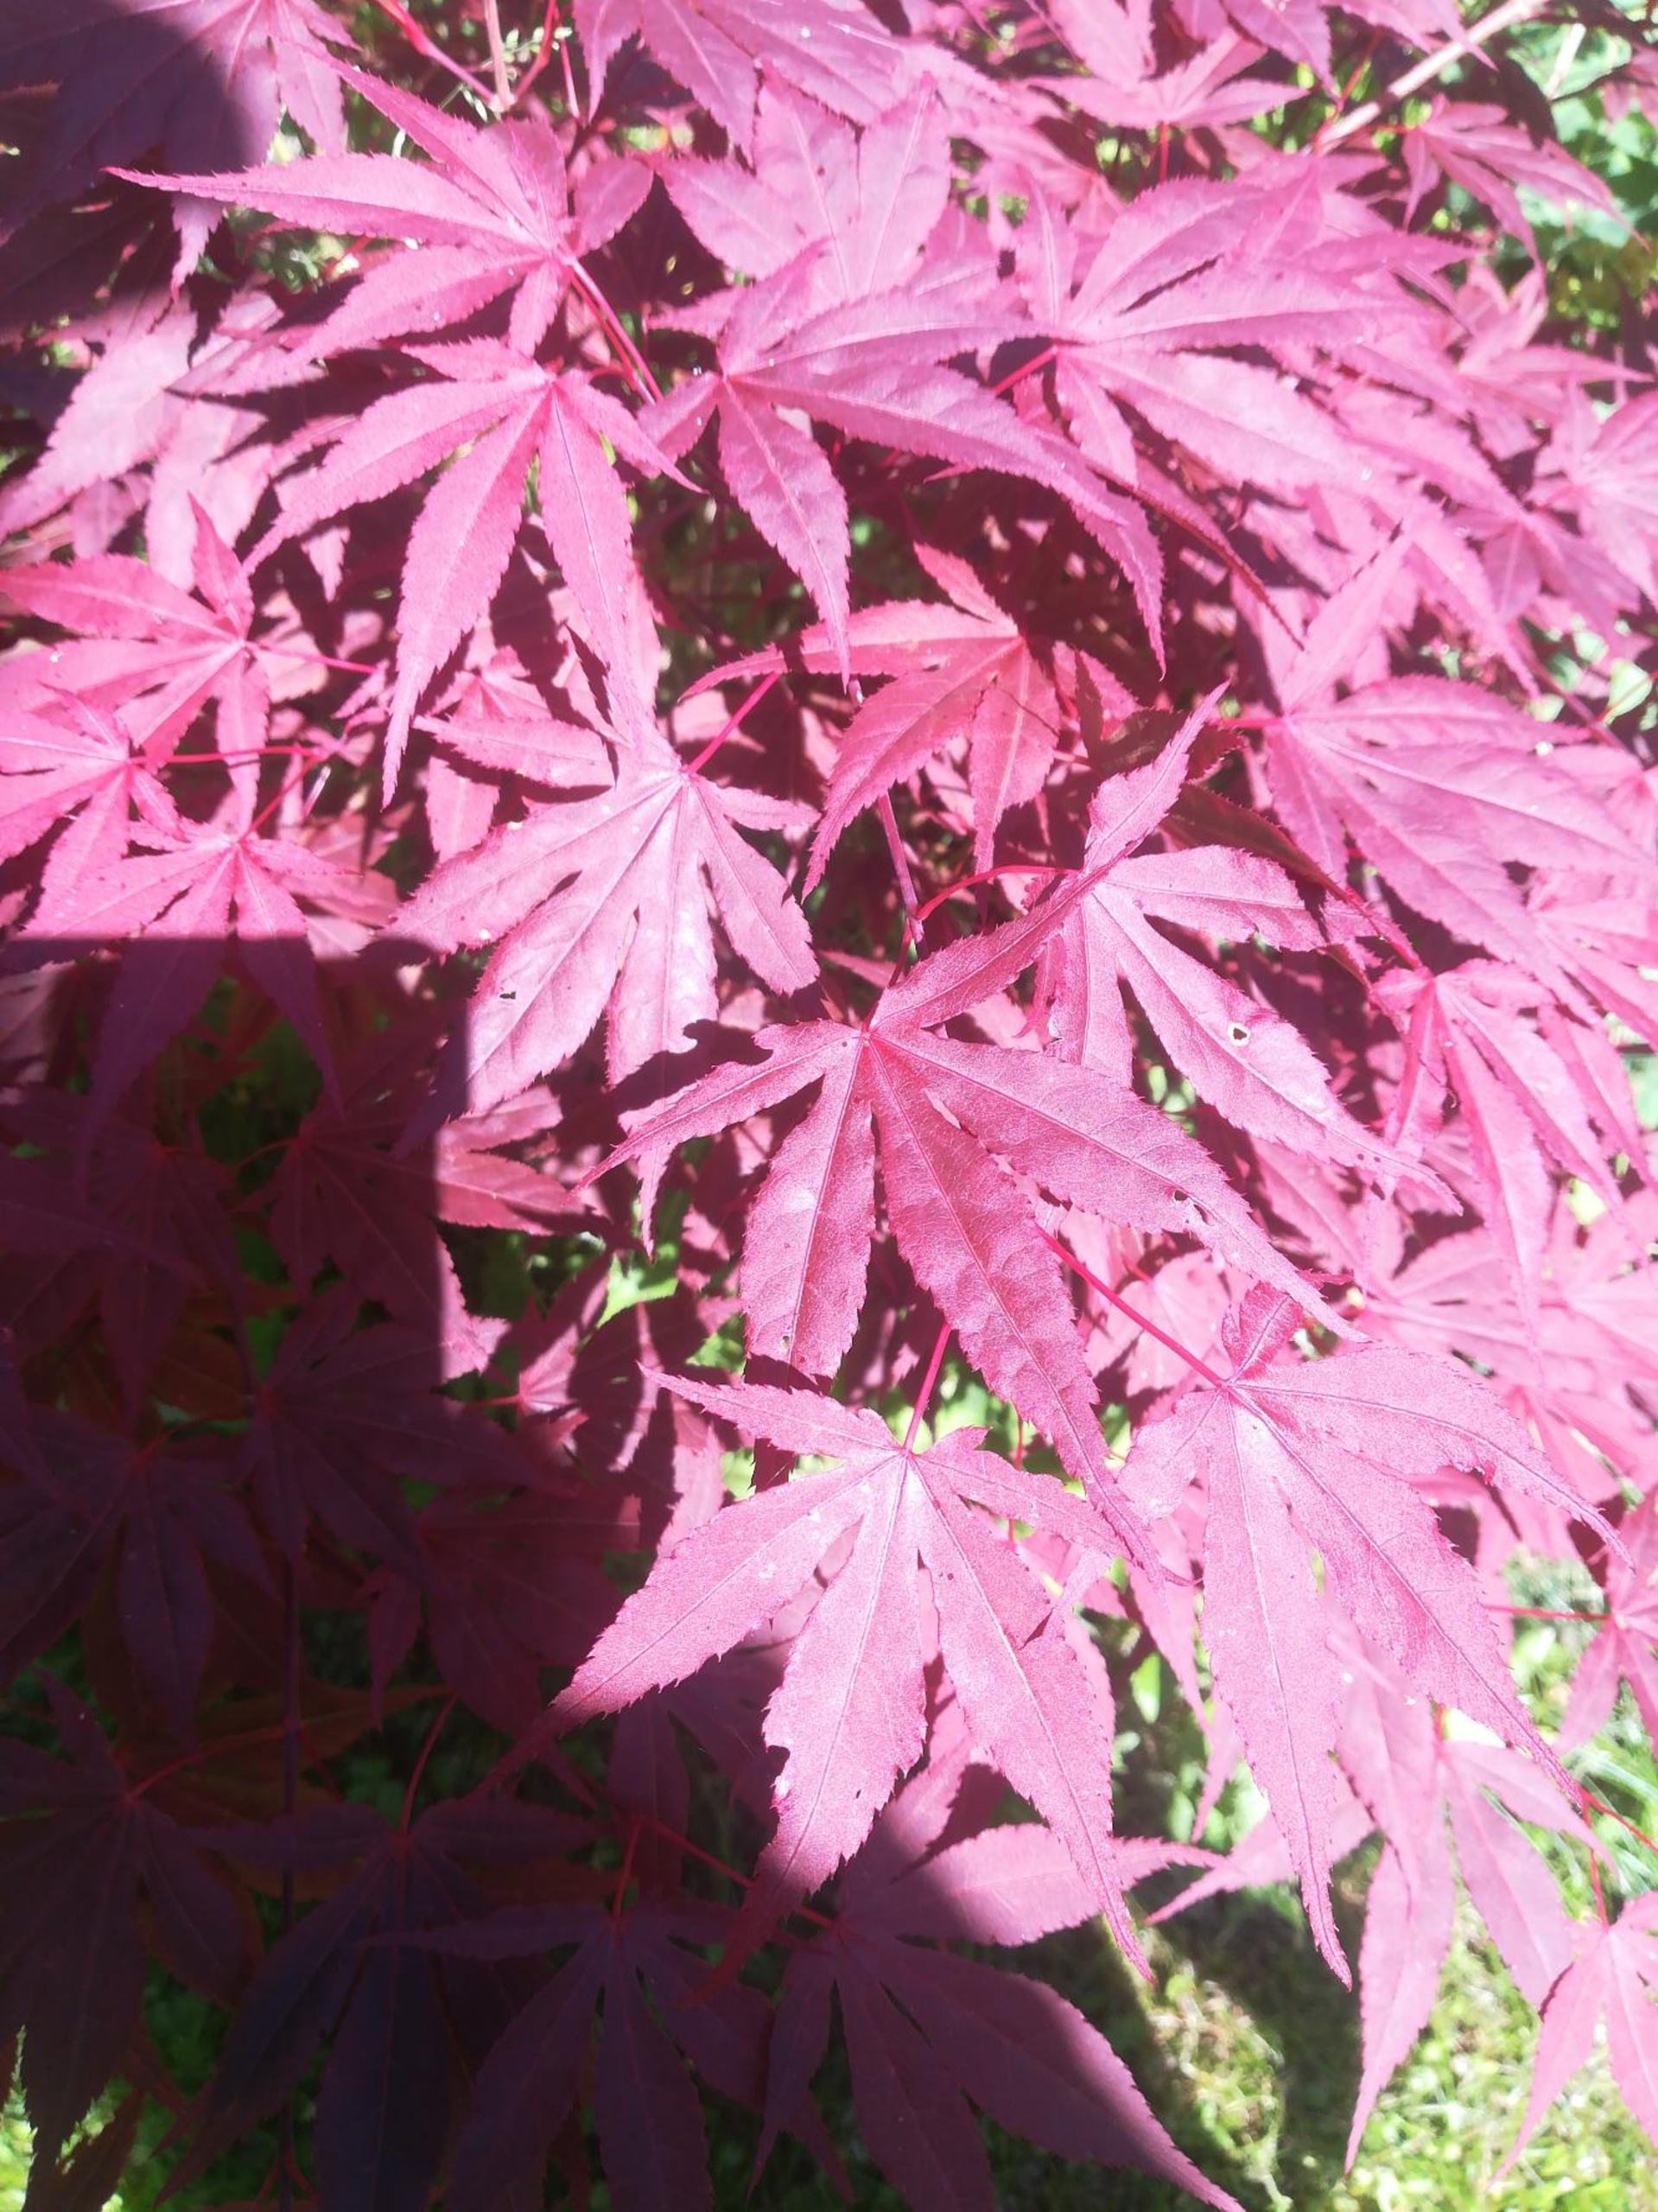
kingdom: Plantae
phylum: Tracheophyta
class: Magnoliopsida
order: Sapindales
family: Sapindaceae
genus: Acer
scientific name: Acer palmatum
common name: Japansk løn
